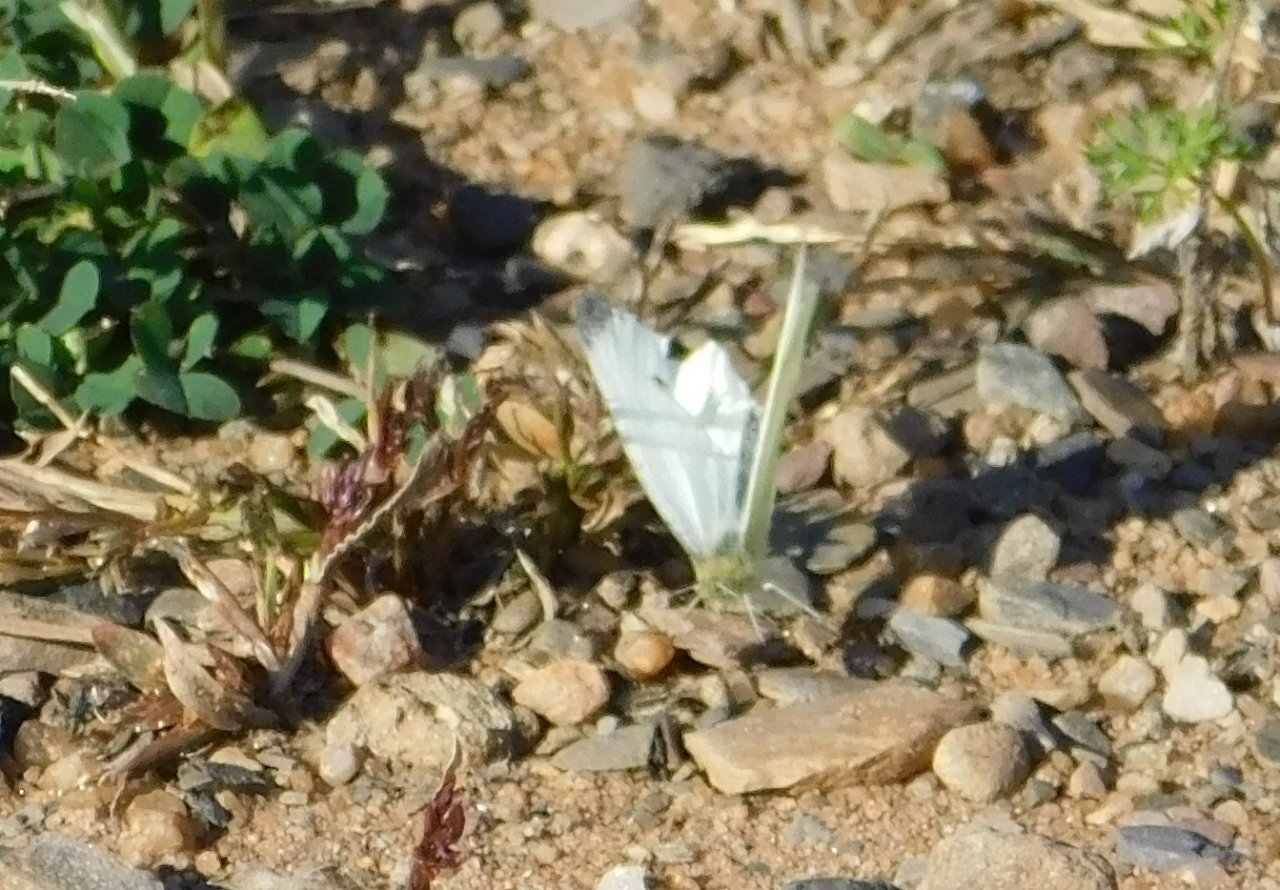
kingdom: Animalia
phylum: Arthropoda
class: Insecta
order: Lepidoptera
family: Pieridae
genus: Pieris
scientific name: Pieris rapae
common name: Cabbage White
